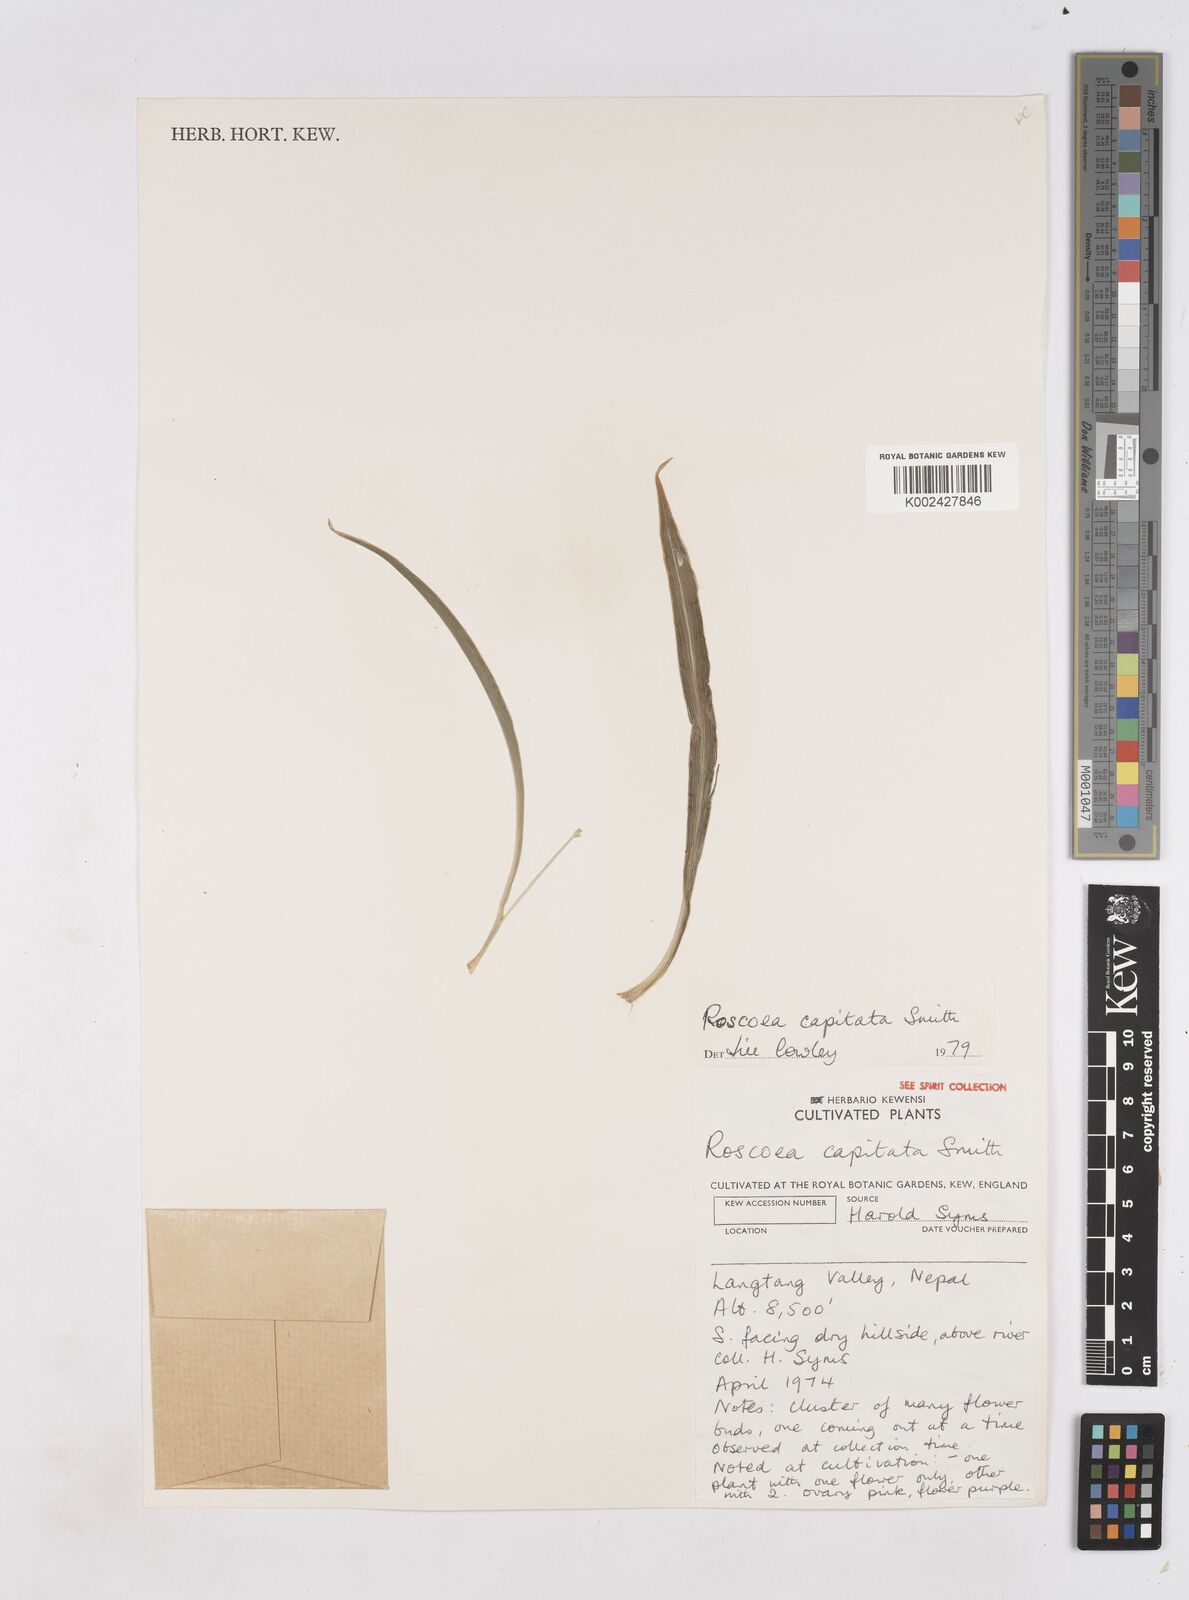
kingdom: Plantae
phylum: Tracheophyta
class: Liliopsida
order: Zingiberales
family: Zingiberaceae
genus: Roscoea
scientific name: Roscoea capitata
